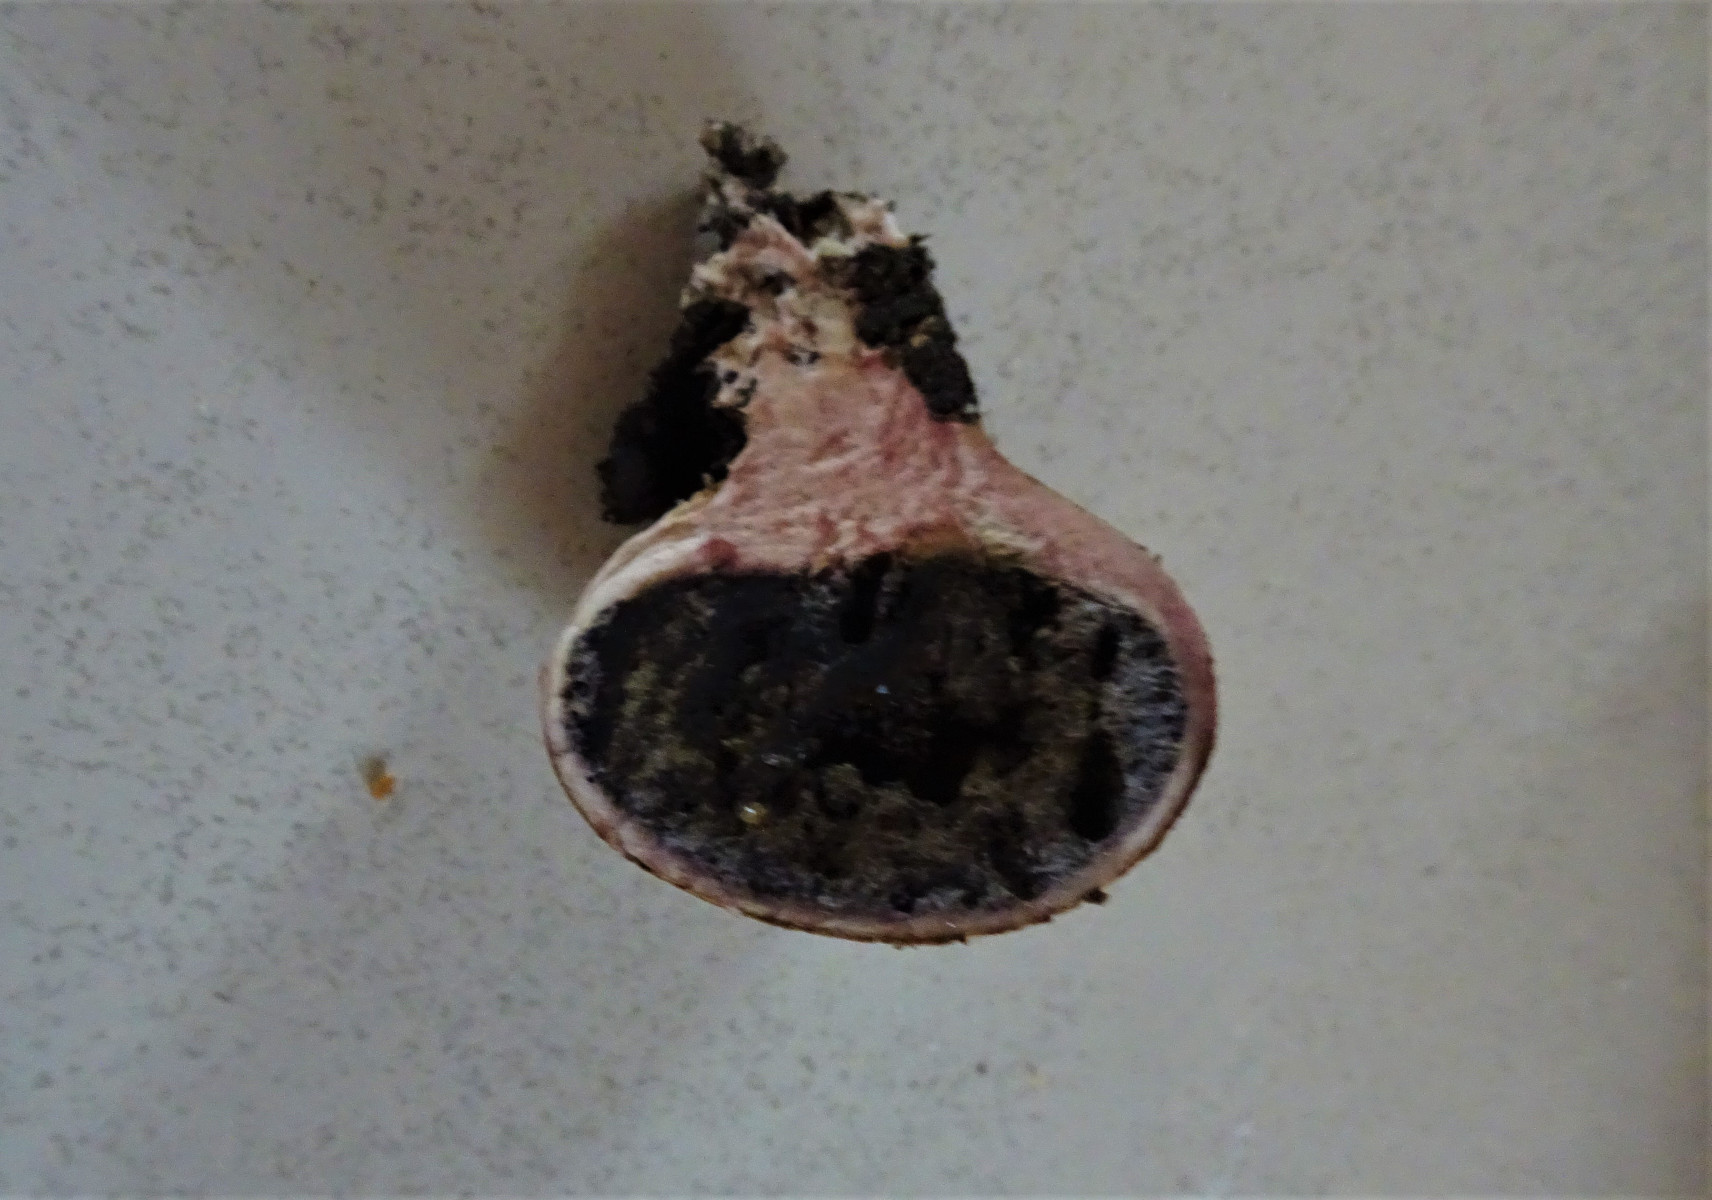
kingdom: Fungi
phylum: Basidiomycota
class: Agaricomycetes
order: Boletales
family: Sclerodermataceae
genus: Scleroderma
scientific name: Scleroderma
